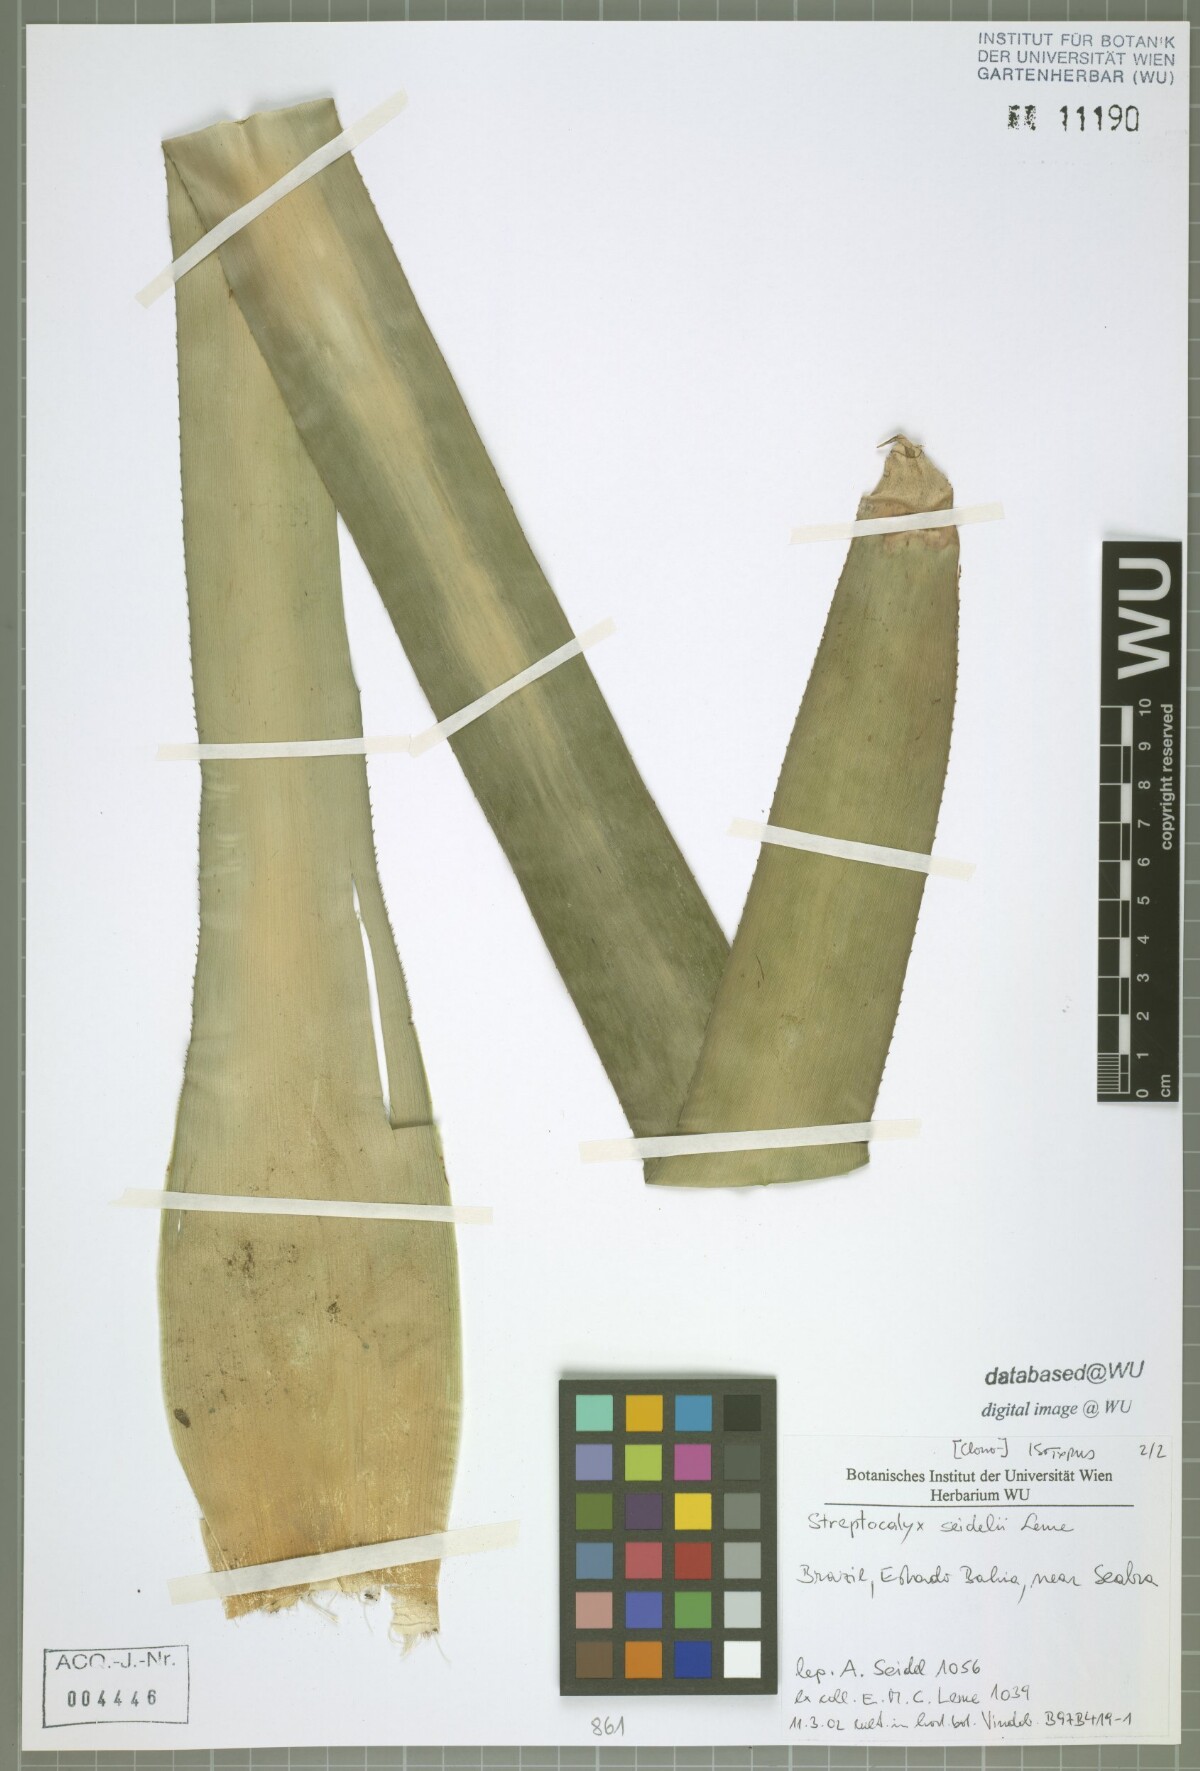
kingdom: Plantae
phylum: Tracheophyta
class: Liliopsida
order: Poales
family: Bromeliaceae
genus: Aechmea
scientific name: Aechmea seidelii
